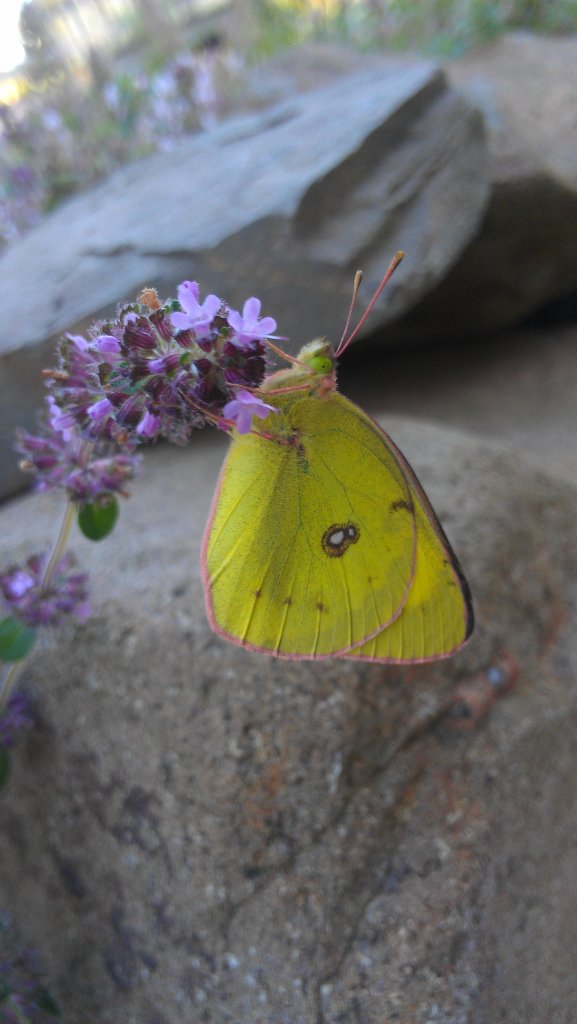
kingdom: Animalia
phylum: Arthropoda
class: Insecta
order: Lepidoptera
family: Pieridae
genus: Colias
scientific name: Colias philodice
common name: Clouded Sulphur
